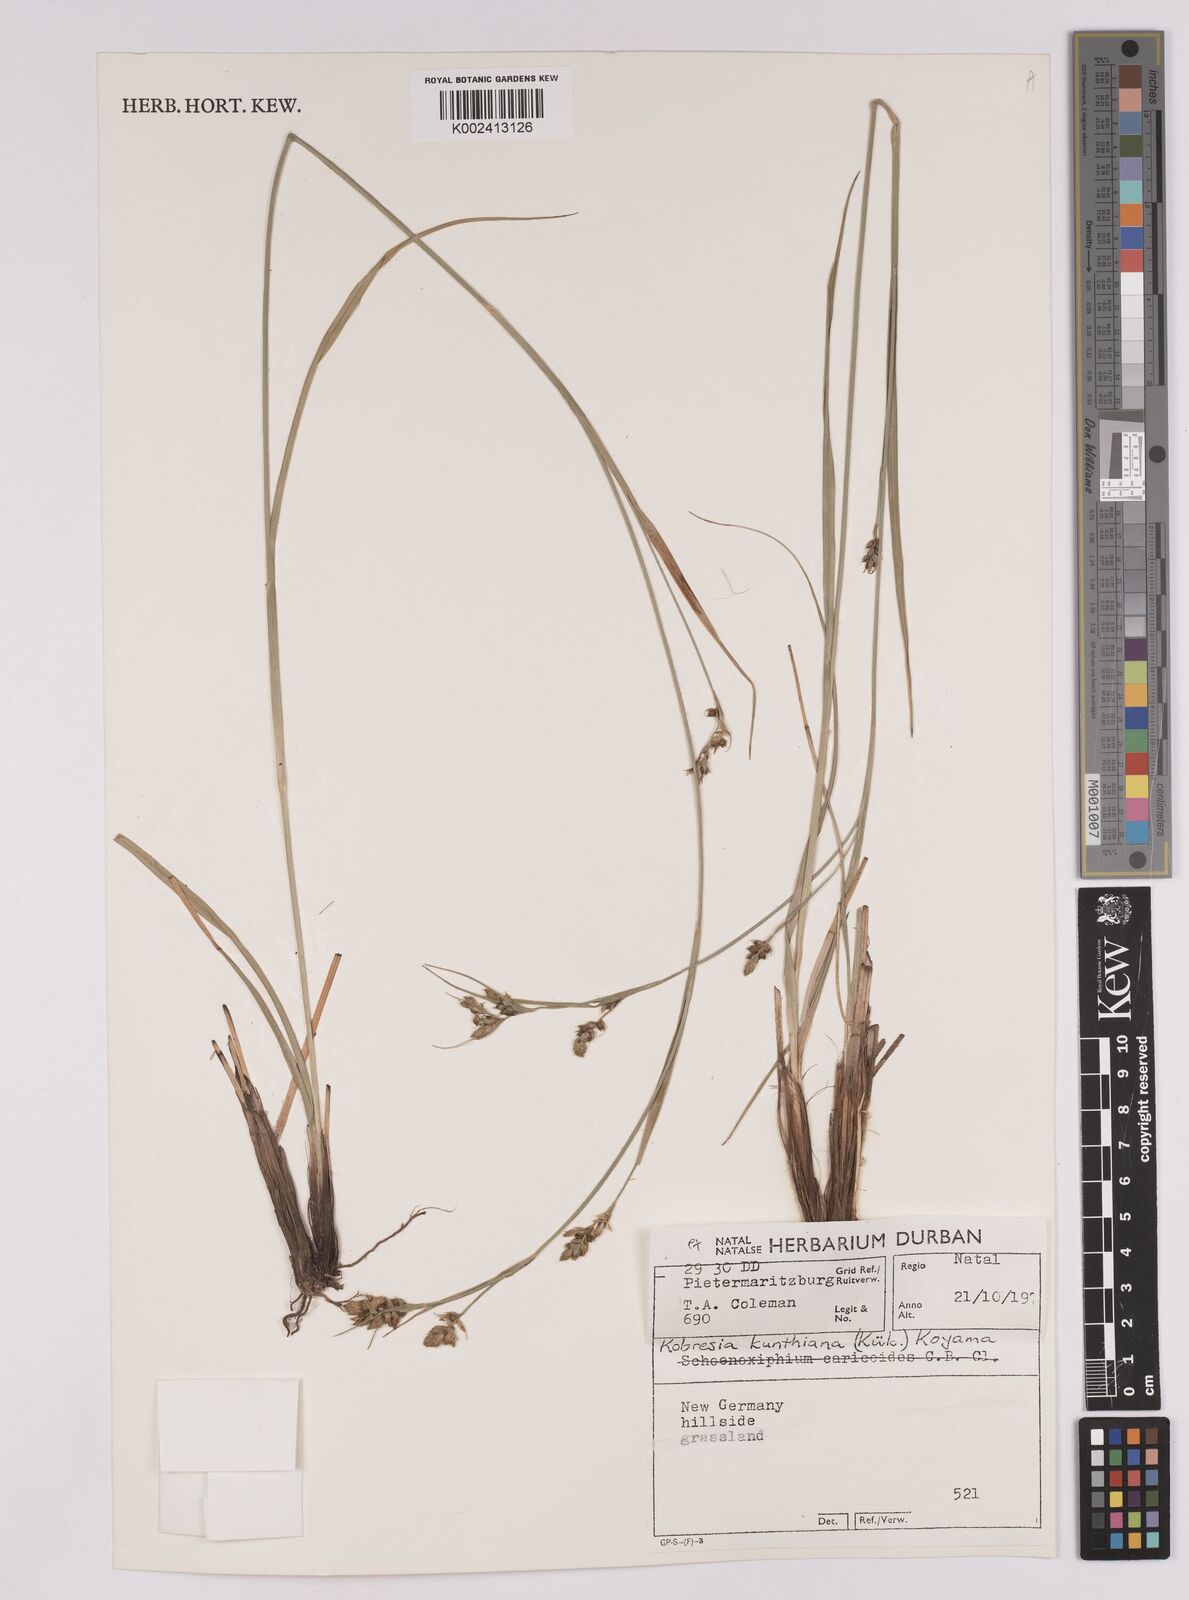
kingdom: Plantae
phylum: Tracheophyta
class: Liliopsida
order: Poales
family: Cyperaceae
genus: Carex
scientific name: Carex spartea
